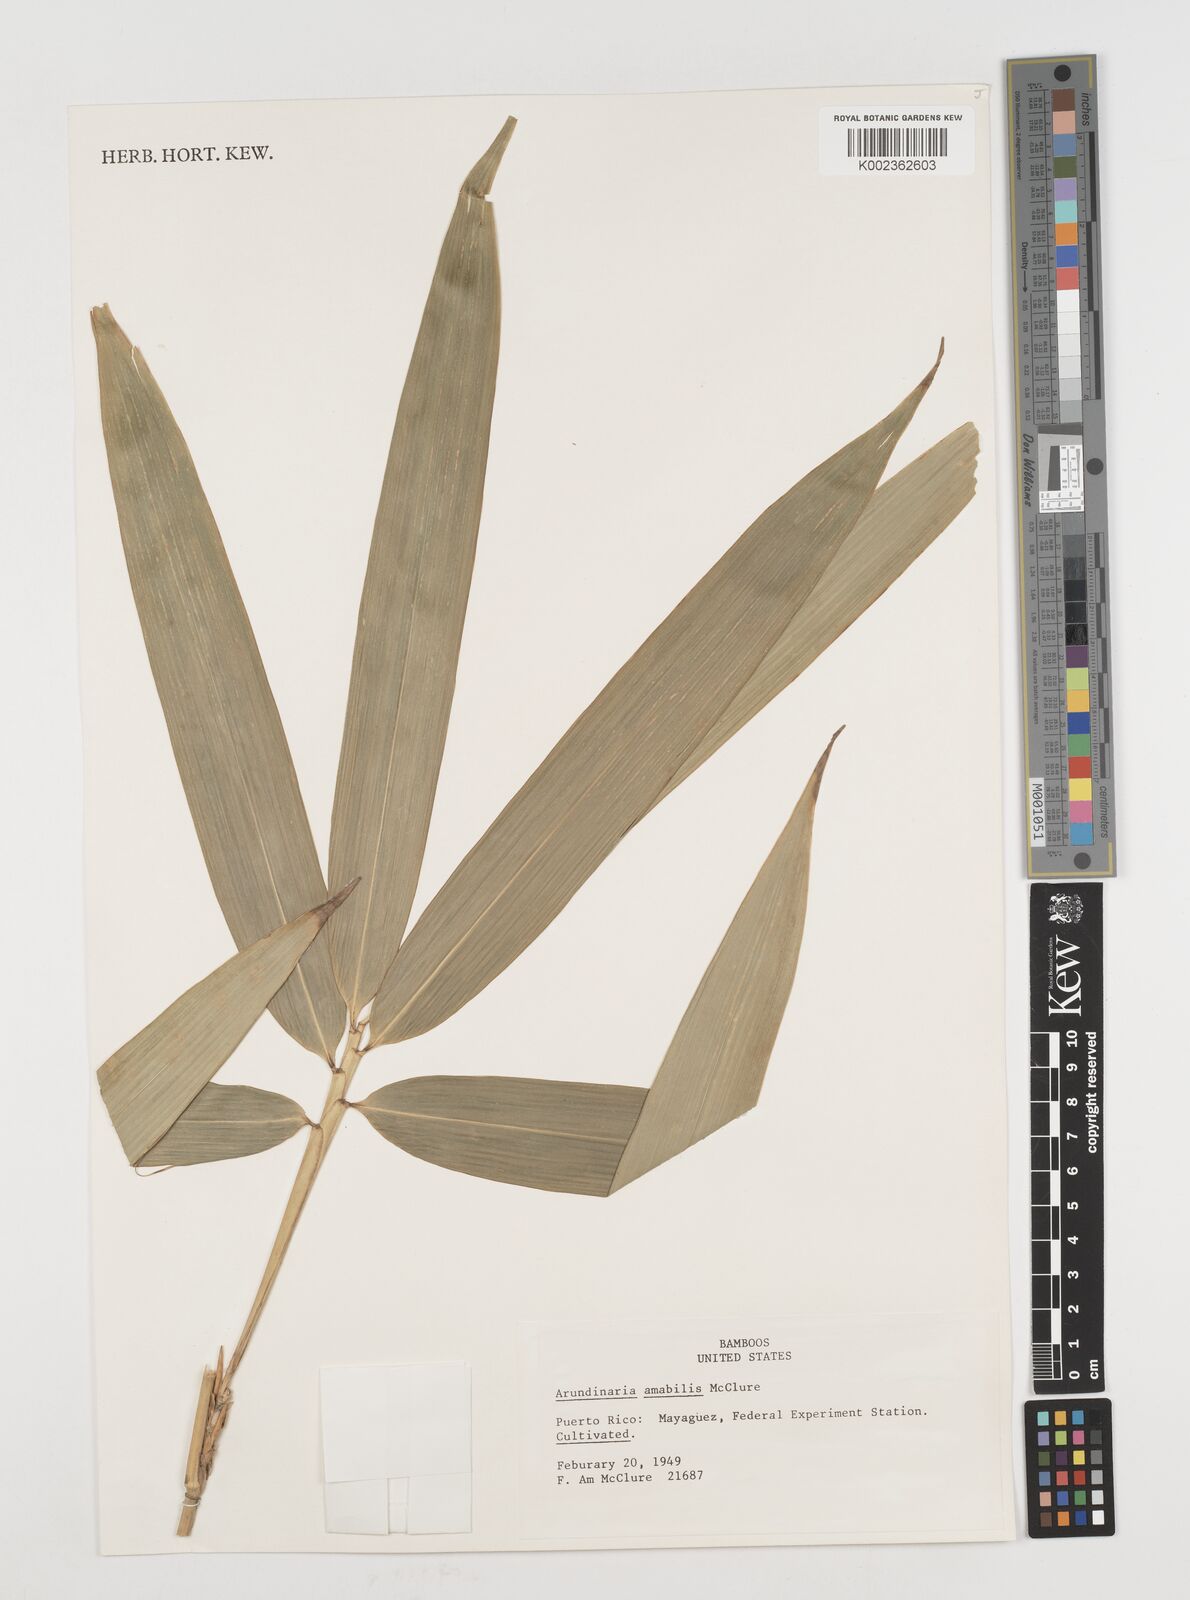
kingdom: Plantae
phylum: Tracheophyta
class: Liliopsida
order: Poales
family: Poaceae
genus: Pseudosasa
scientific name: Pseudosasa amabilis
